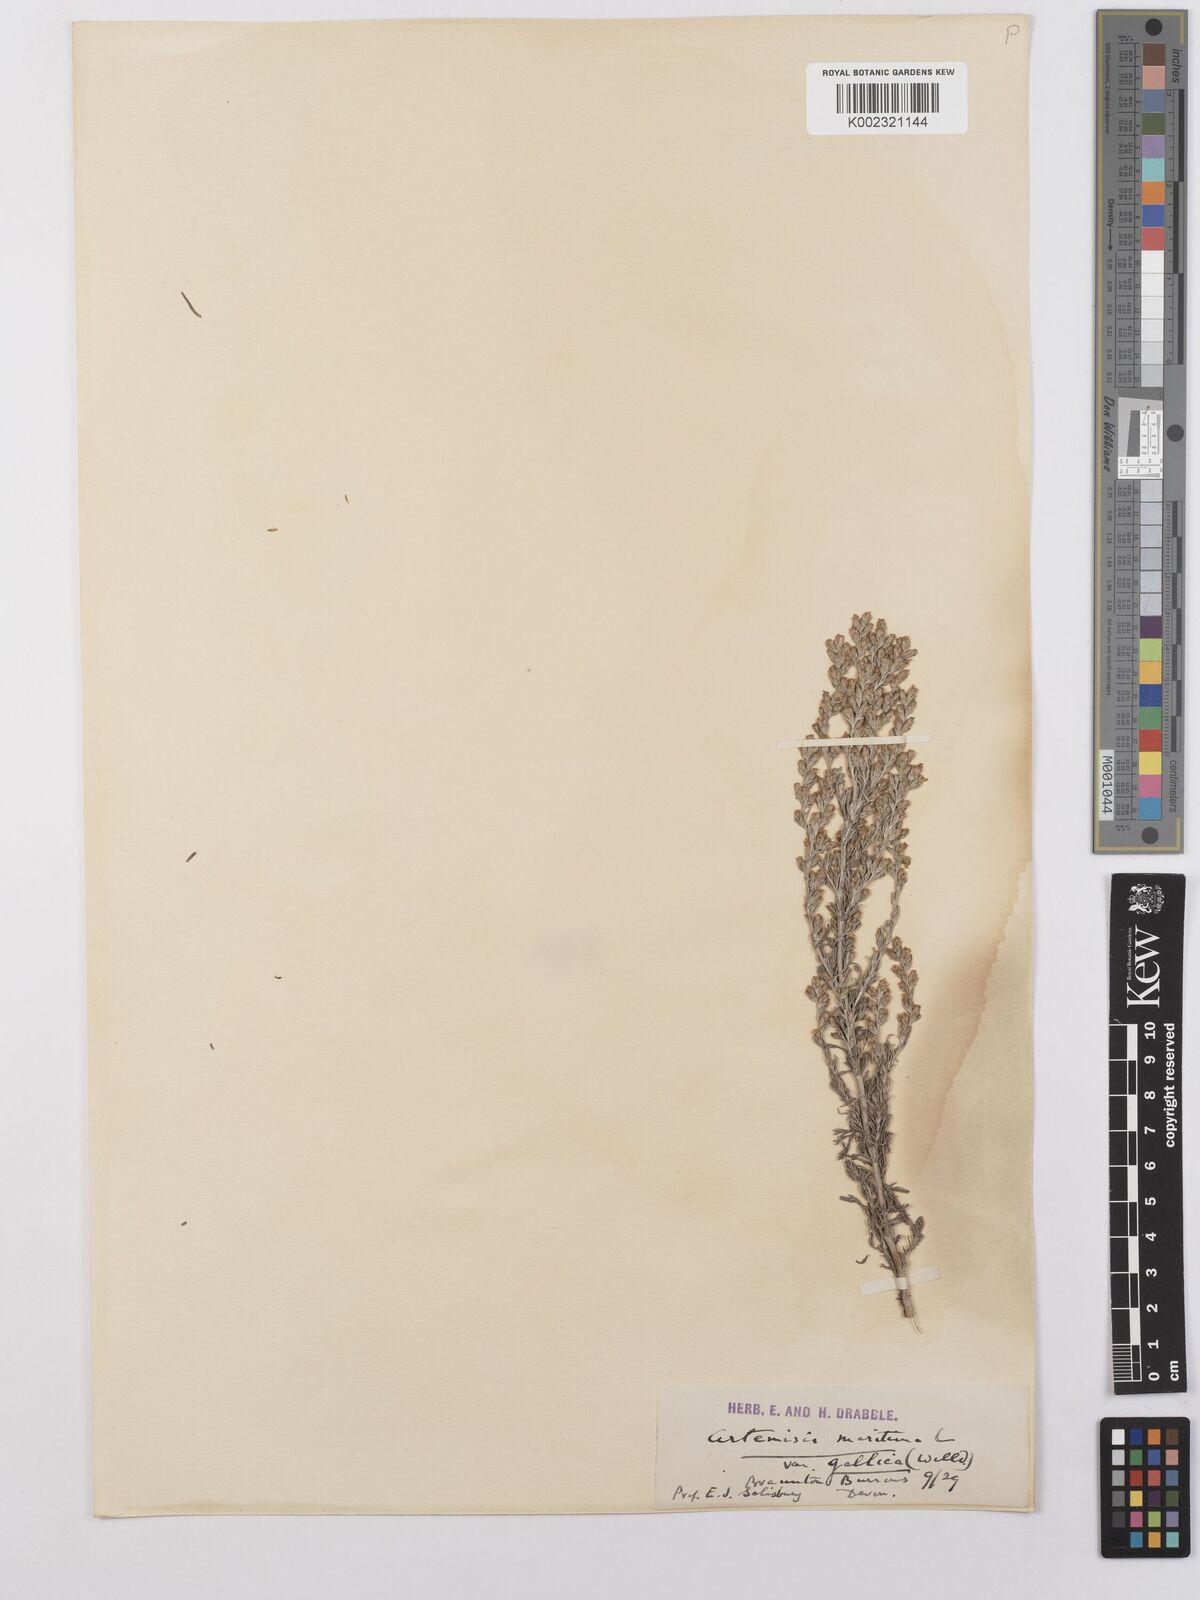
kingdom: Plantae
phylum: Tracheophyta
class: Magnoliopsida
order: Asterales
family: Asteraceae
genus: Artemisia
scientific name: Artemisia maritima
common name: Wormseed
